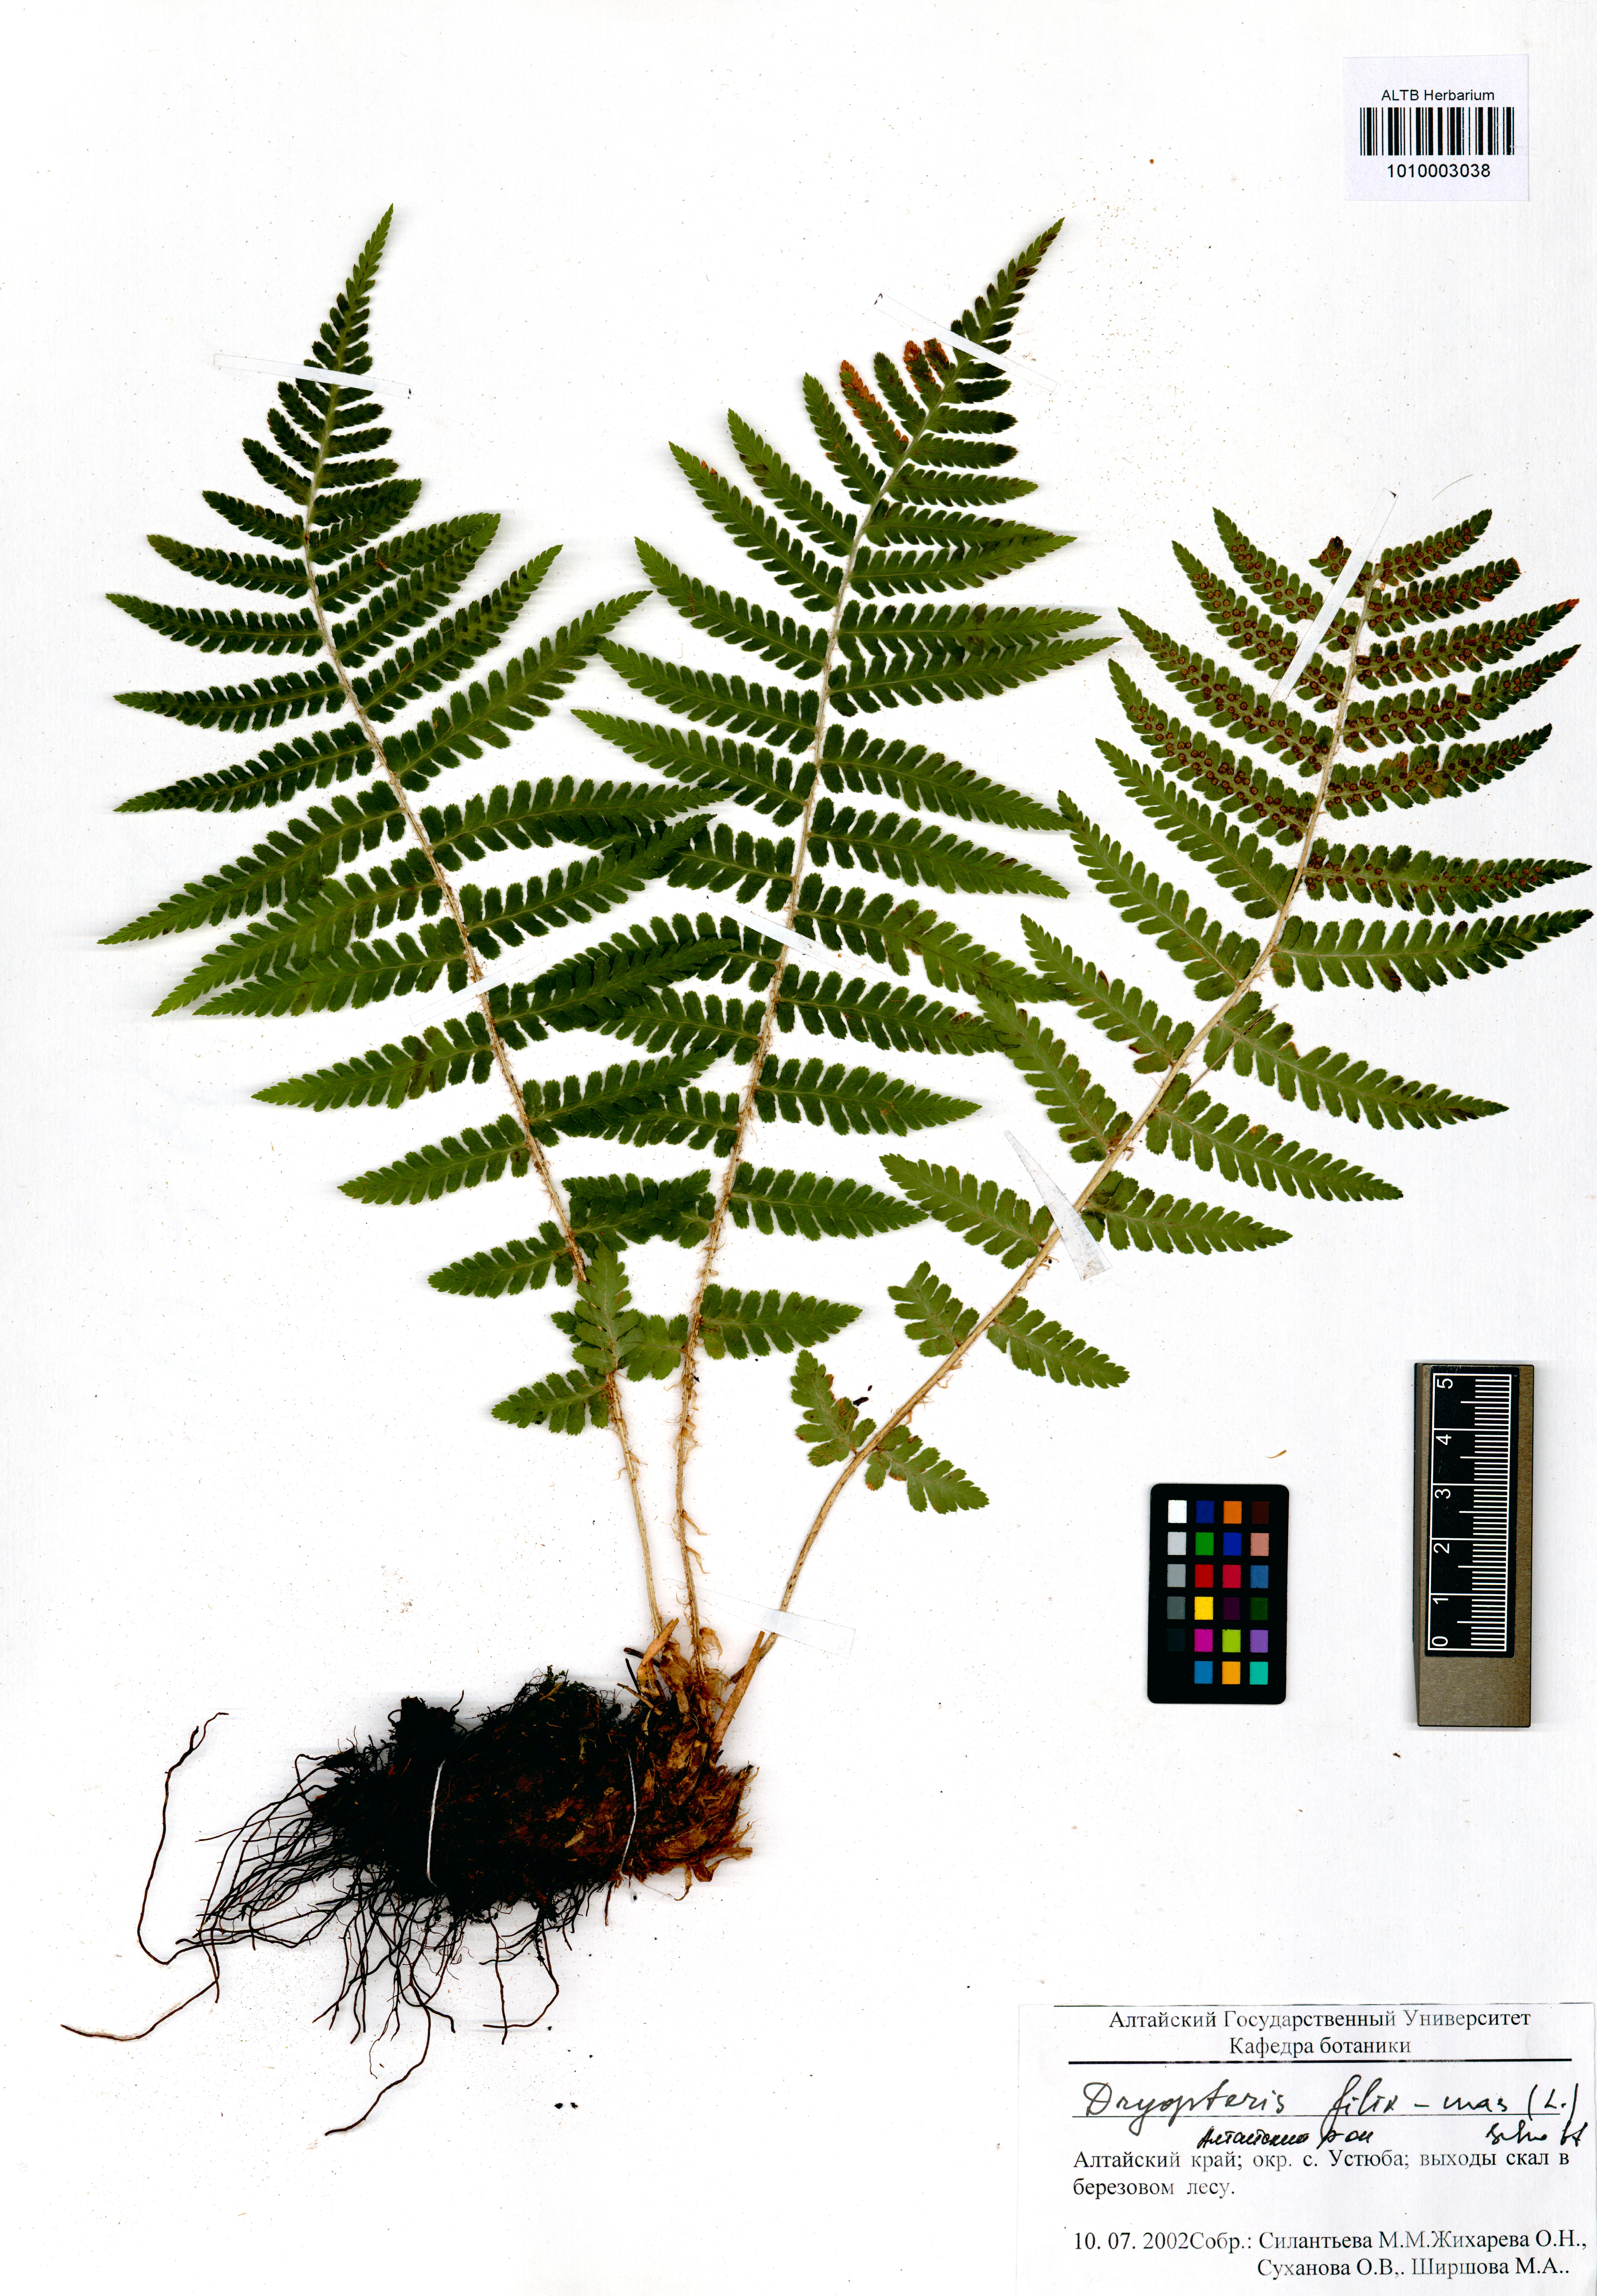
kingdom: Plantae
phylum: Tracheophyta
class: Polypodiopsida
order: Polypodiales
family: Dryopteridaceae
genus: Dryopteris
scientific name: Dryopteris filix-mas
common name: Male fern
